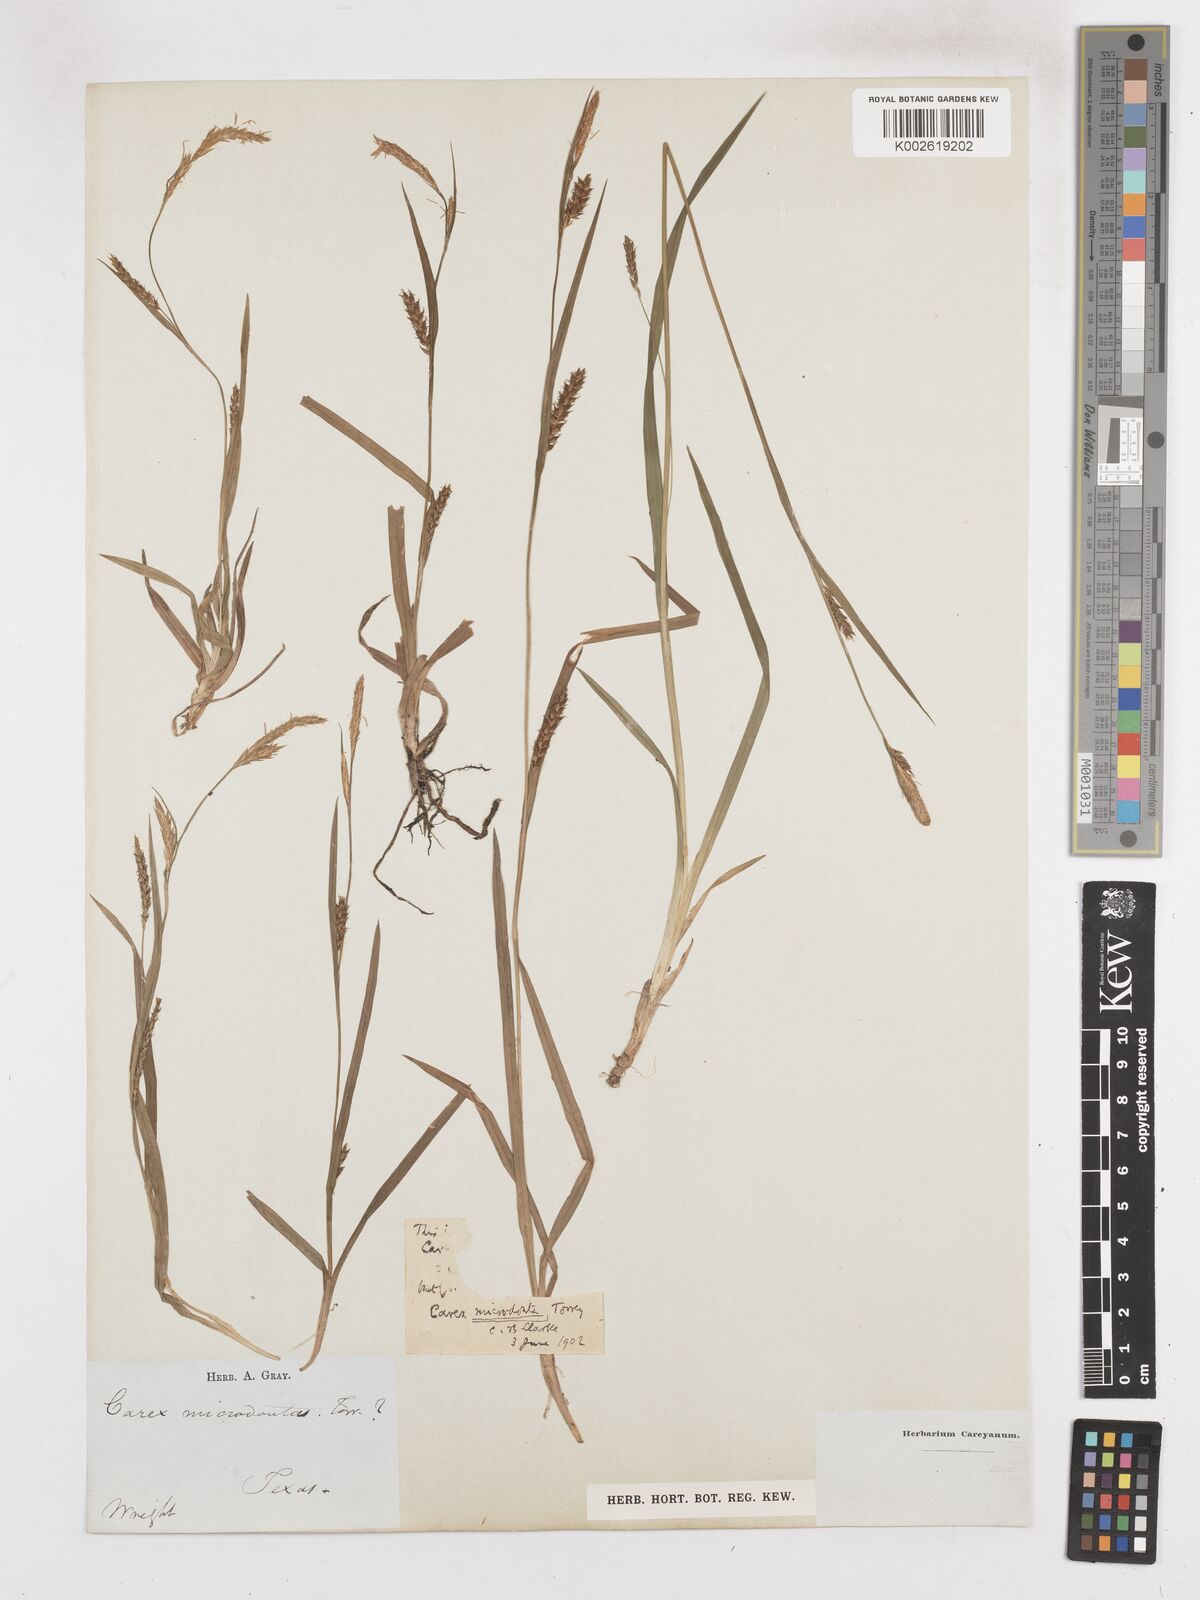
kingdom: Plantae
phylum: Tracheophyta
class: Liliopsida
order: Poales
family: Cyperaceae
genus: Carex
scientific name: Carex microdonta
